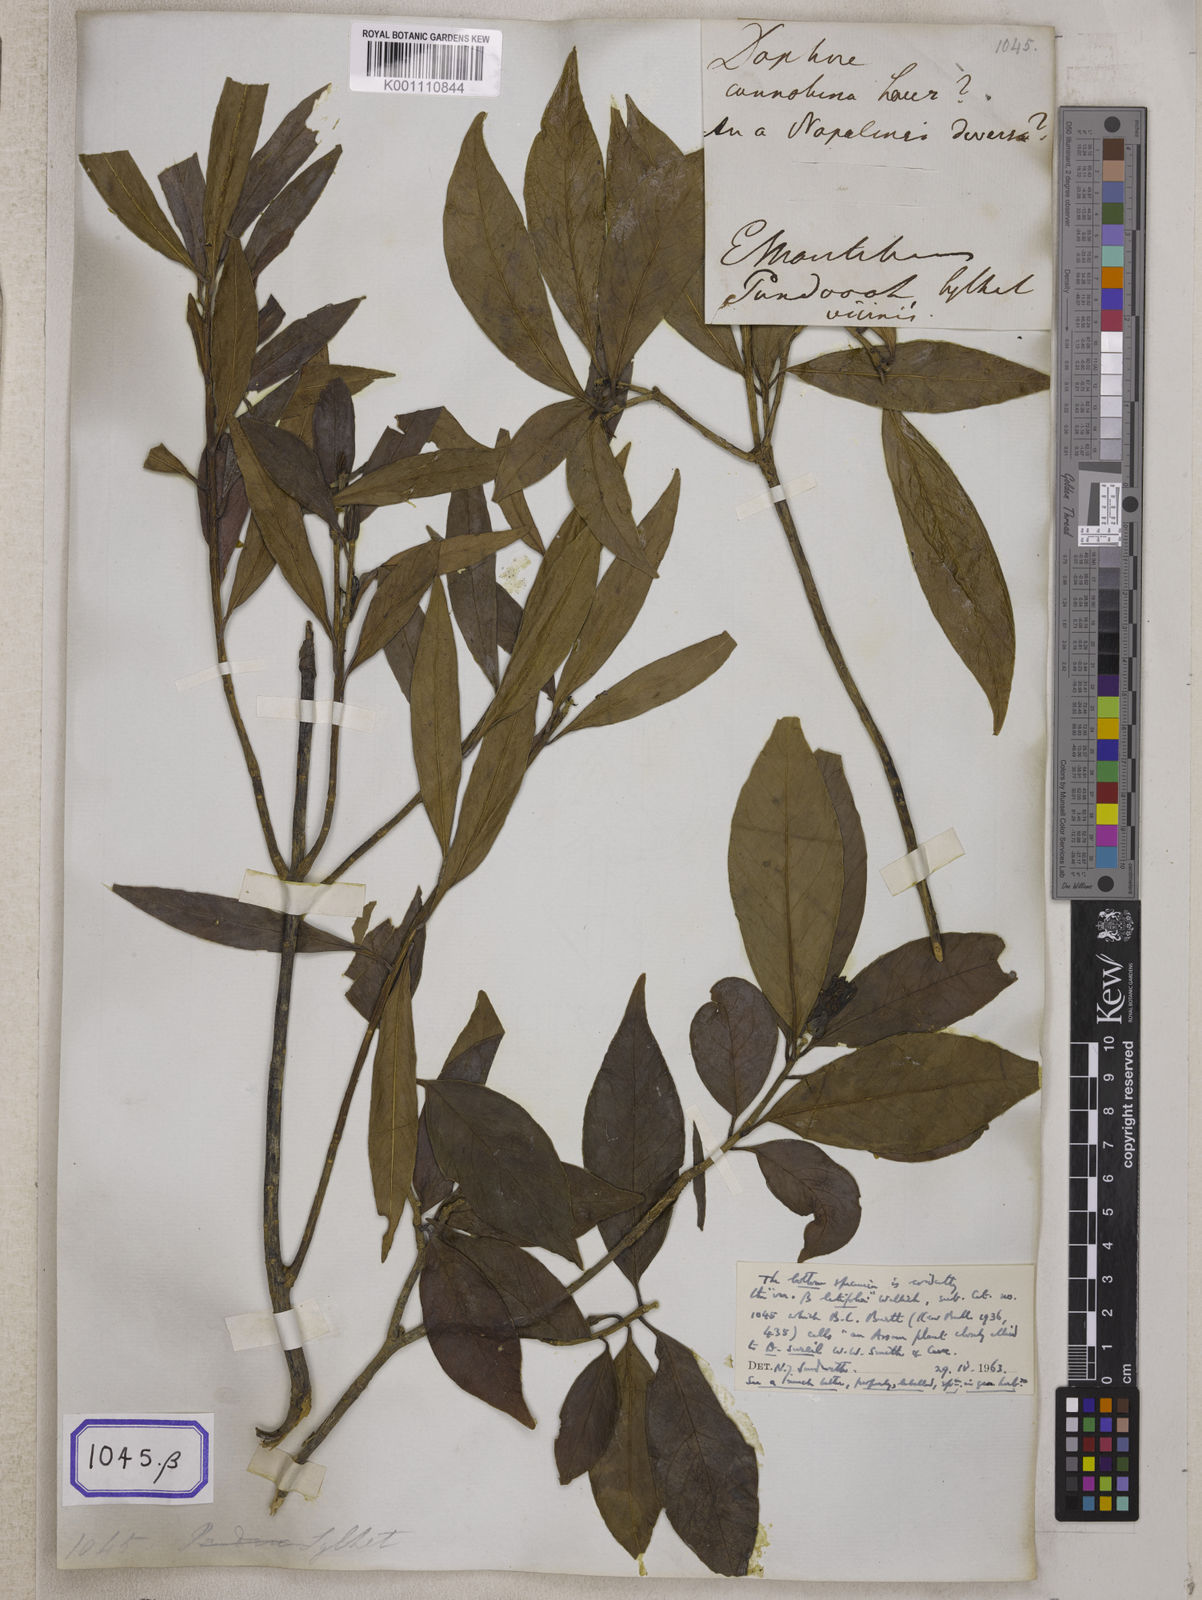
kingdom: Plantae
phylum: Tracheophyta
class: Magnoliopsida
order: Malvales
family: Thymelaeaceae
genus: Wikstroemia
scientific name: Wikstroemia indica
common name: Tiebush
